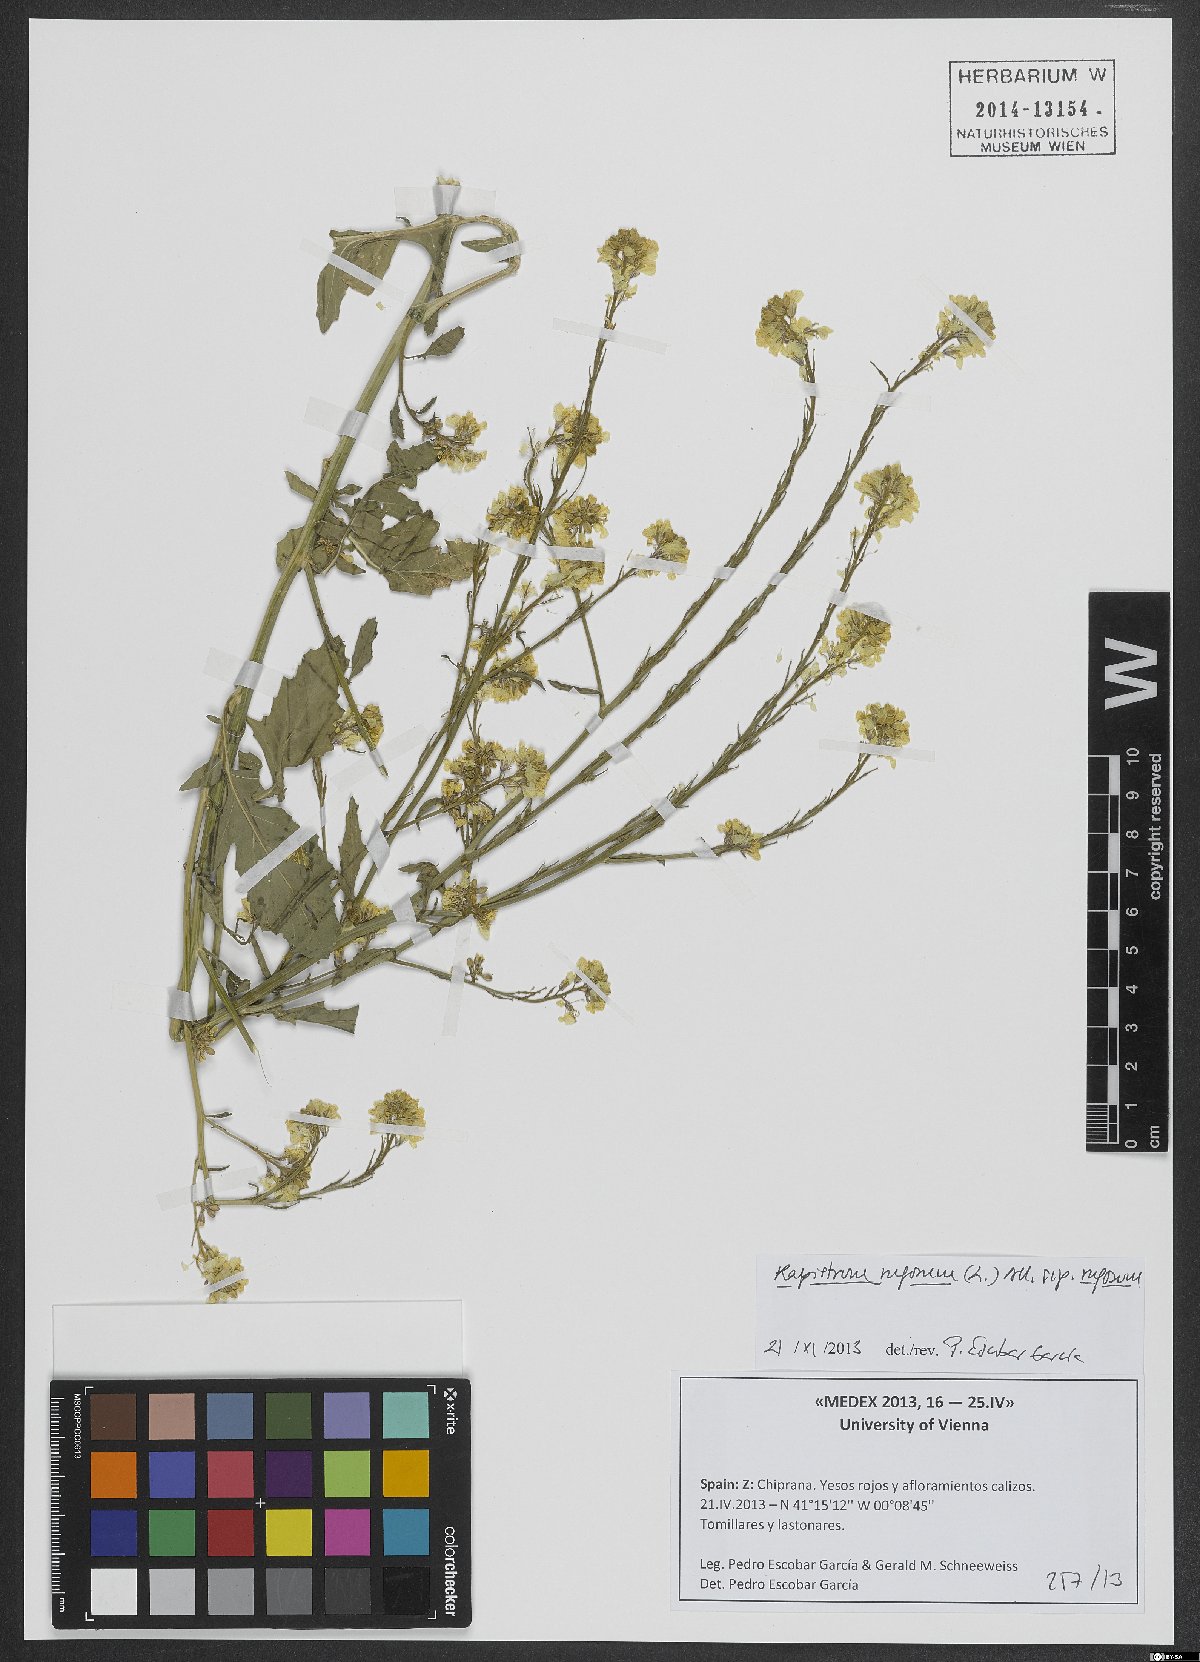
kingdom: Plantae
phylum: Tracheophyta
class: Magnoliopsida
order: Brassicales
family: Brassicaceae
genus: Rapistrum
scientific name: Rapistrum rugosum
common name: Annual bastardcabbage
